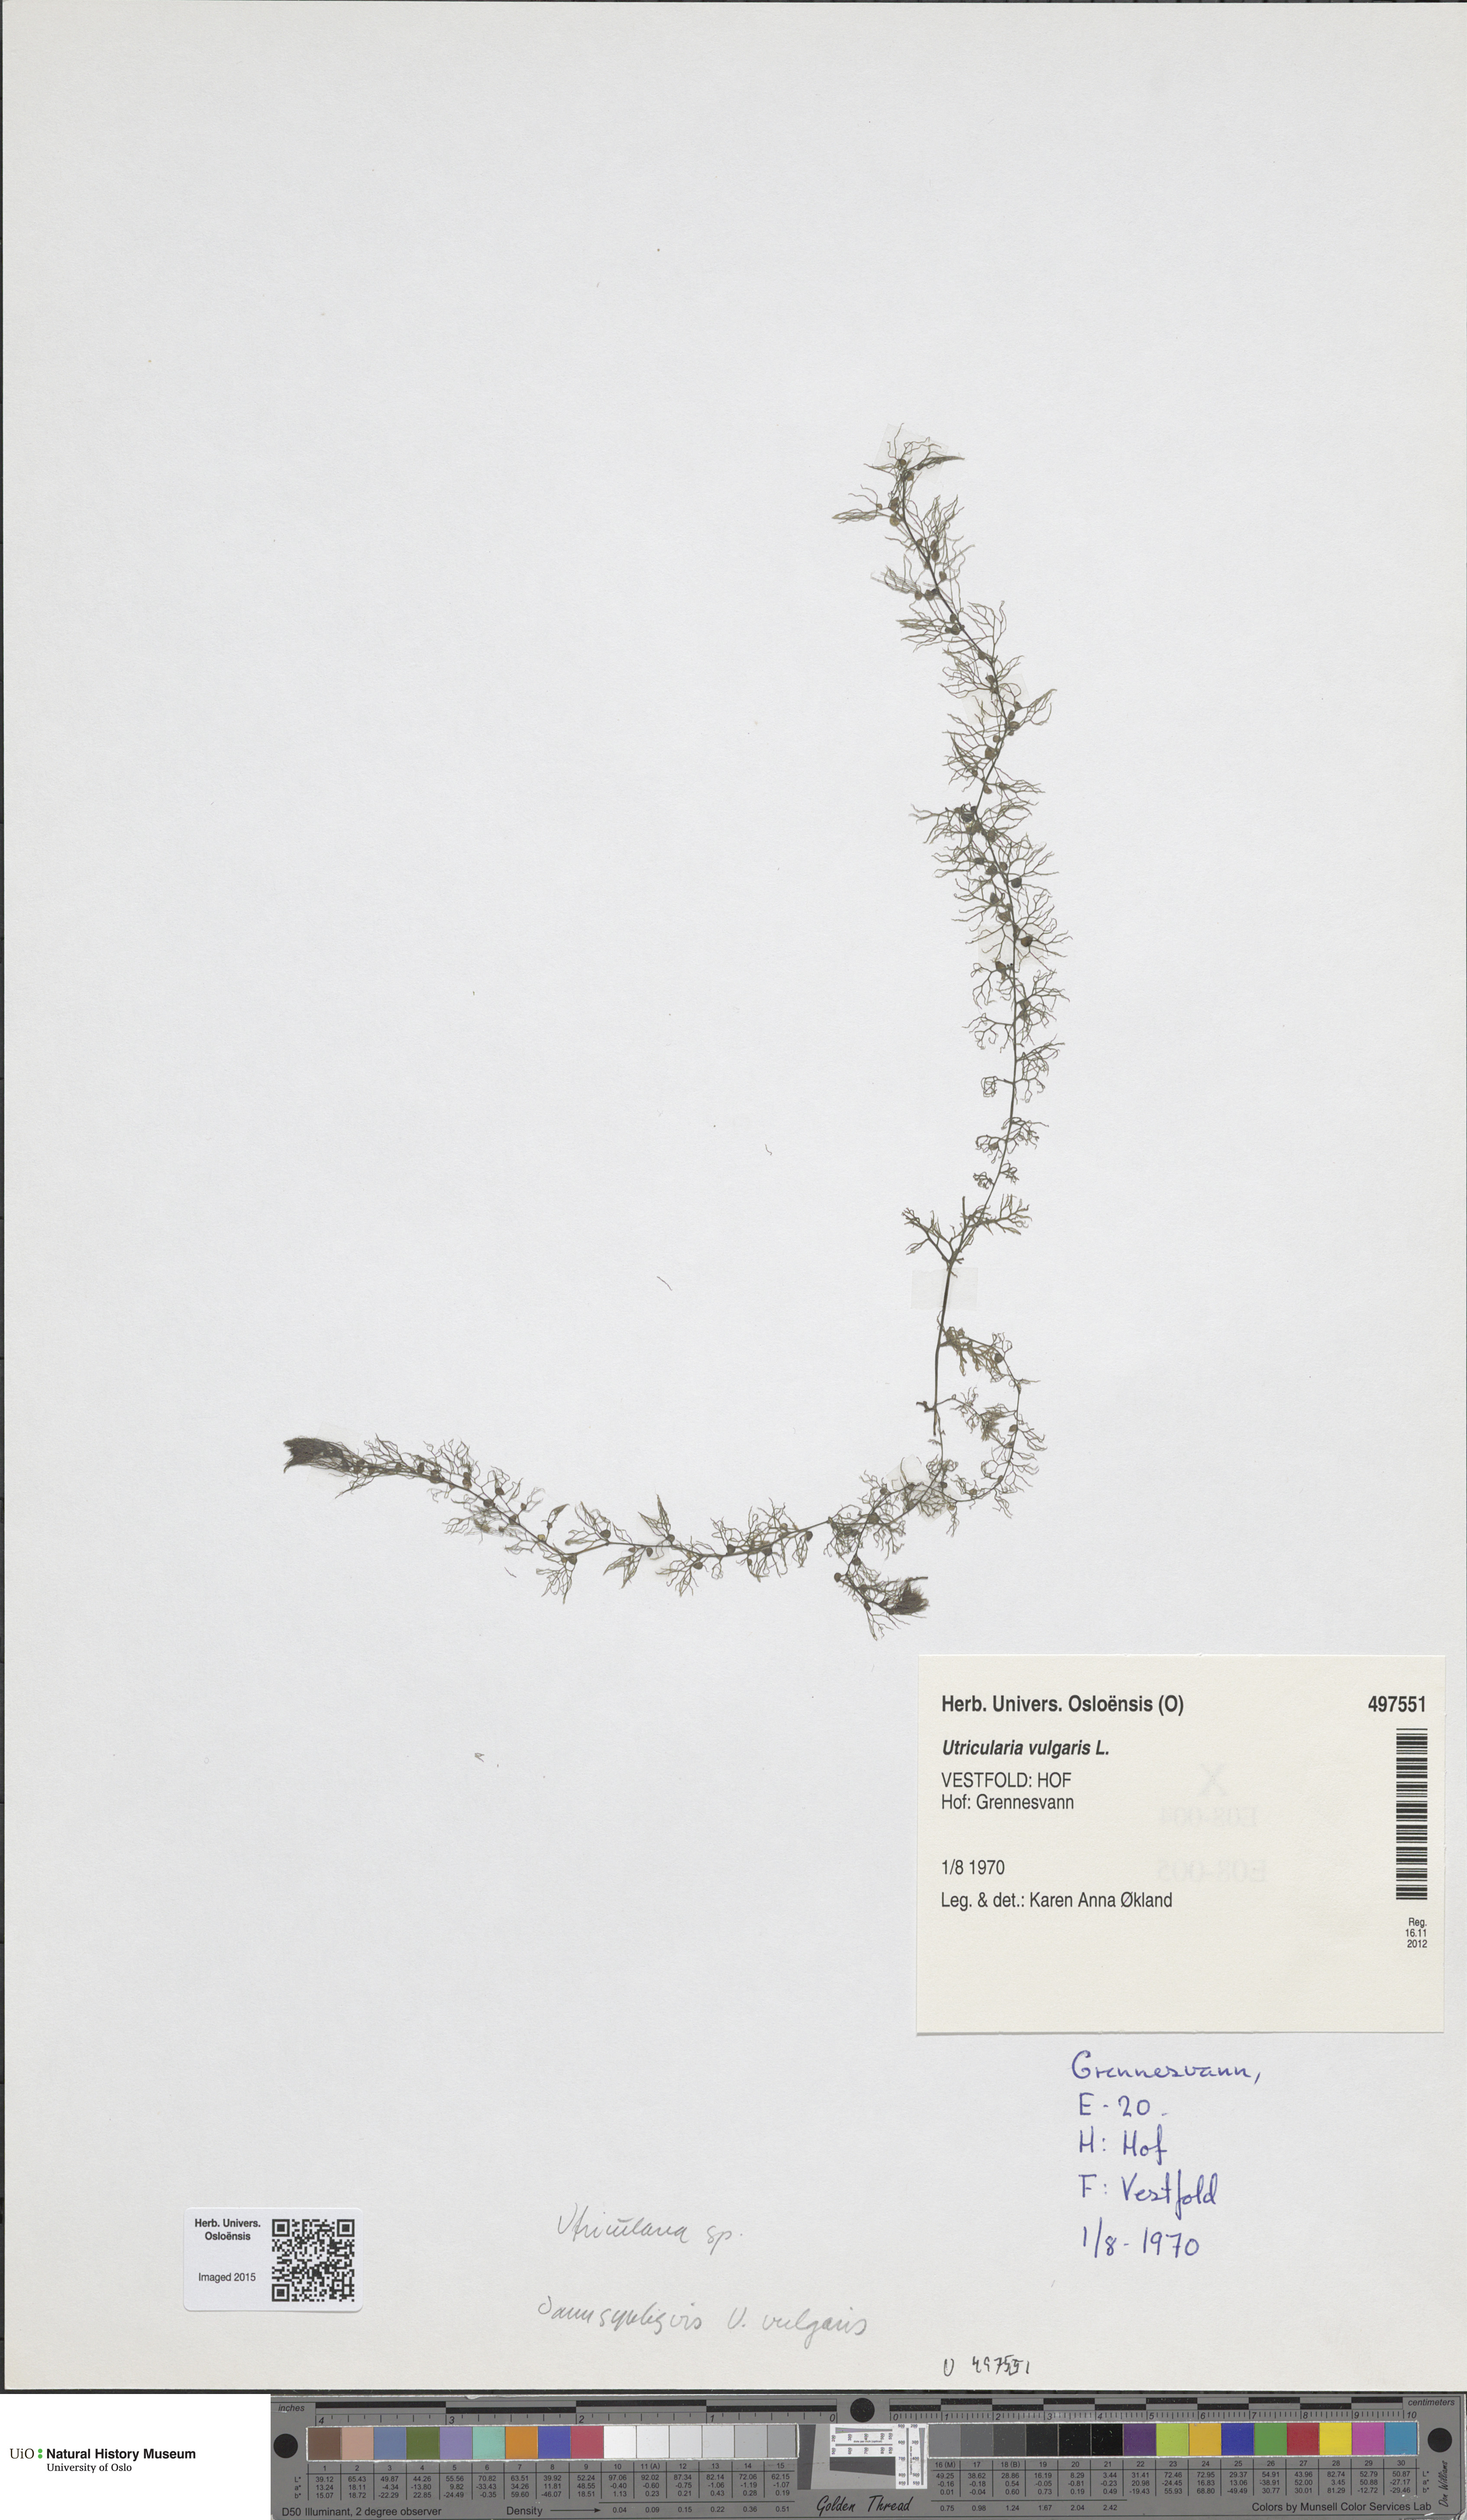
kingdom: Plantae
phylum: Tracheophyta
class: Magnoliopsida
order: Lamiales
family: Lentibulariaceae
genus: Utricularia
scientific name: Utricularia vulgaris
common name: Greater bladderwort
